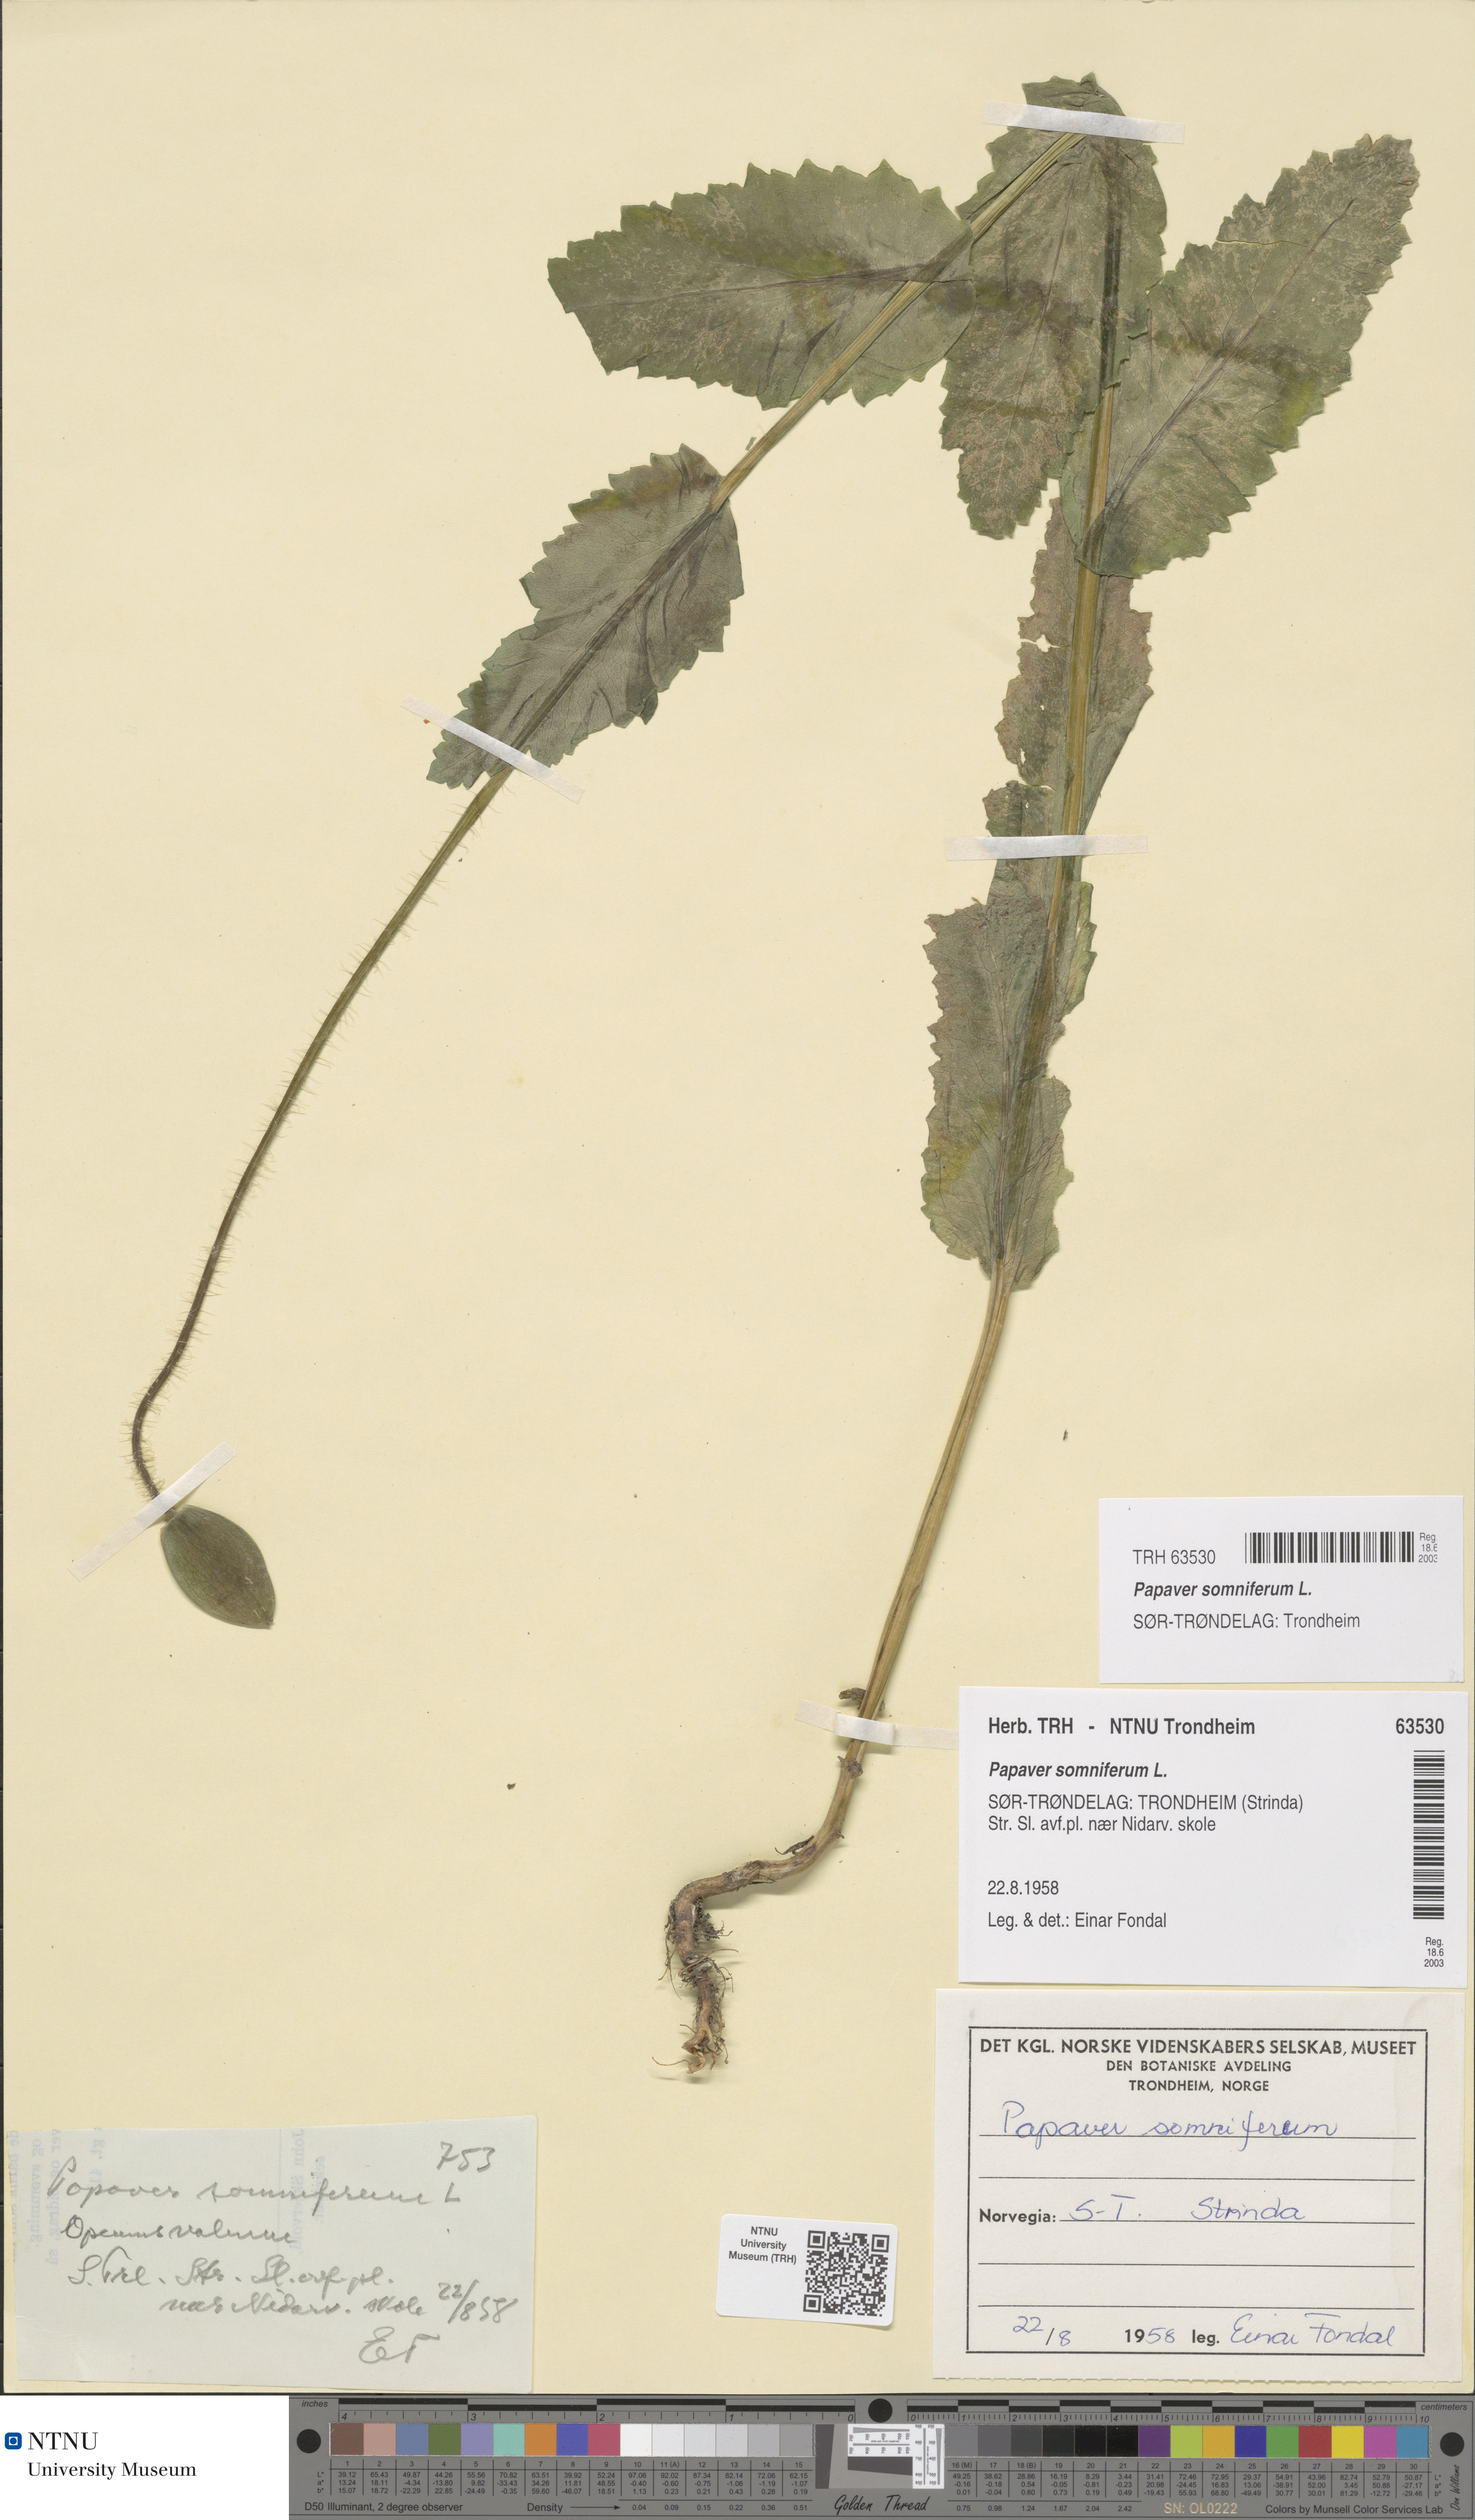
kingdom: Plantae
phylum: Tracheophyta
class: Magnoliopsida
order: Ranunculales
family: Papaveraceae
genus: Papaver
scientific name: Papaver somniferum
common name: Opium poppy
